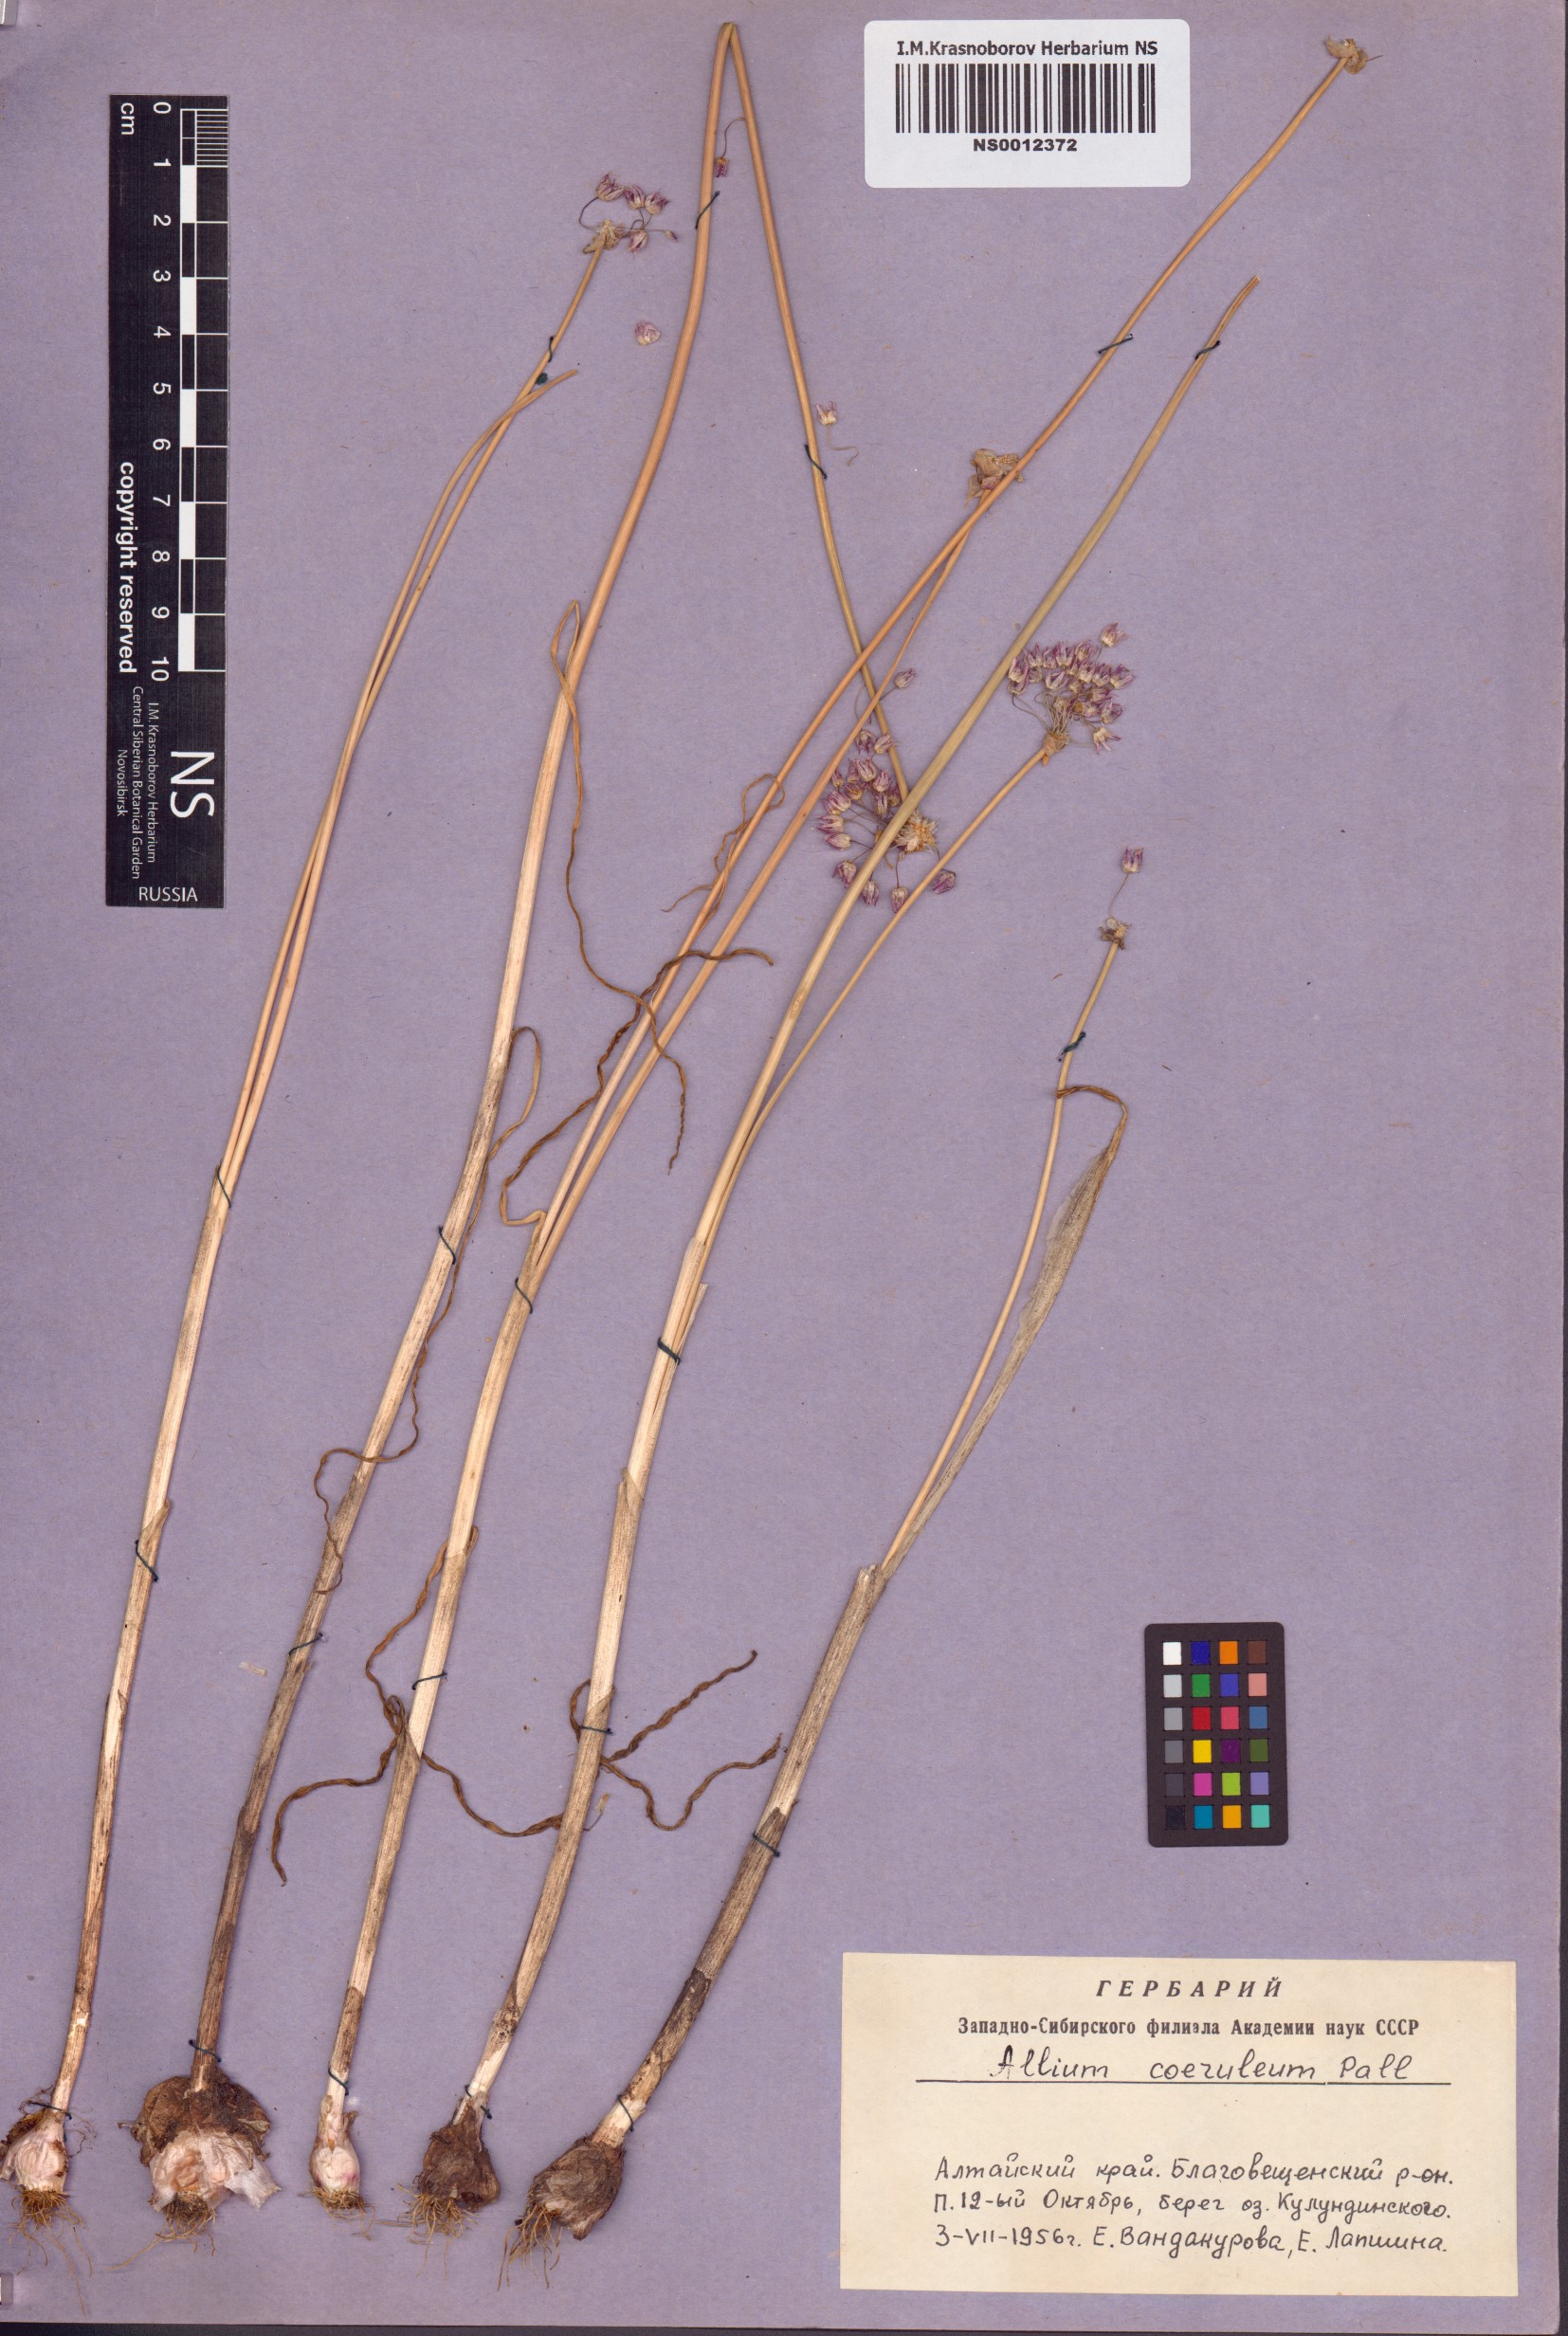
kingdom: Plantae
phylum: Tracheophyta
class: Liliopsida
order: Asparagales
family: Amaryllidaceae
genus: Allium
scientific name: Allium caeruleum
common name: Blue-of-the-heavens
